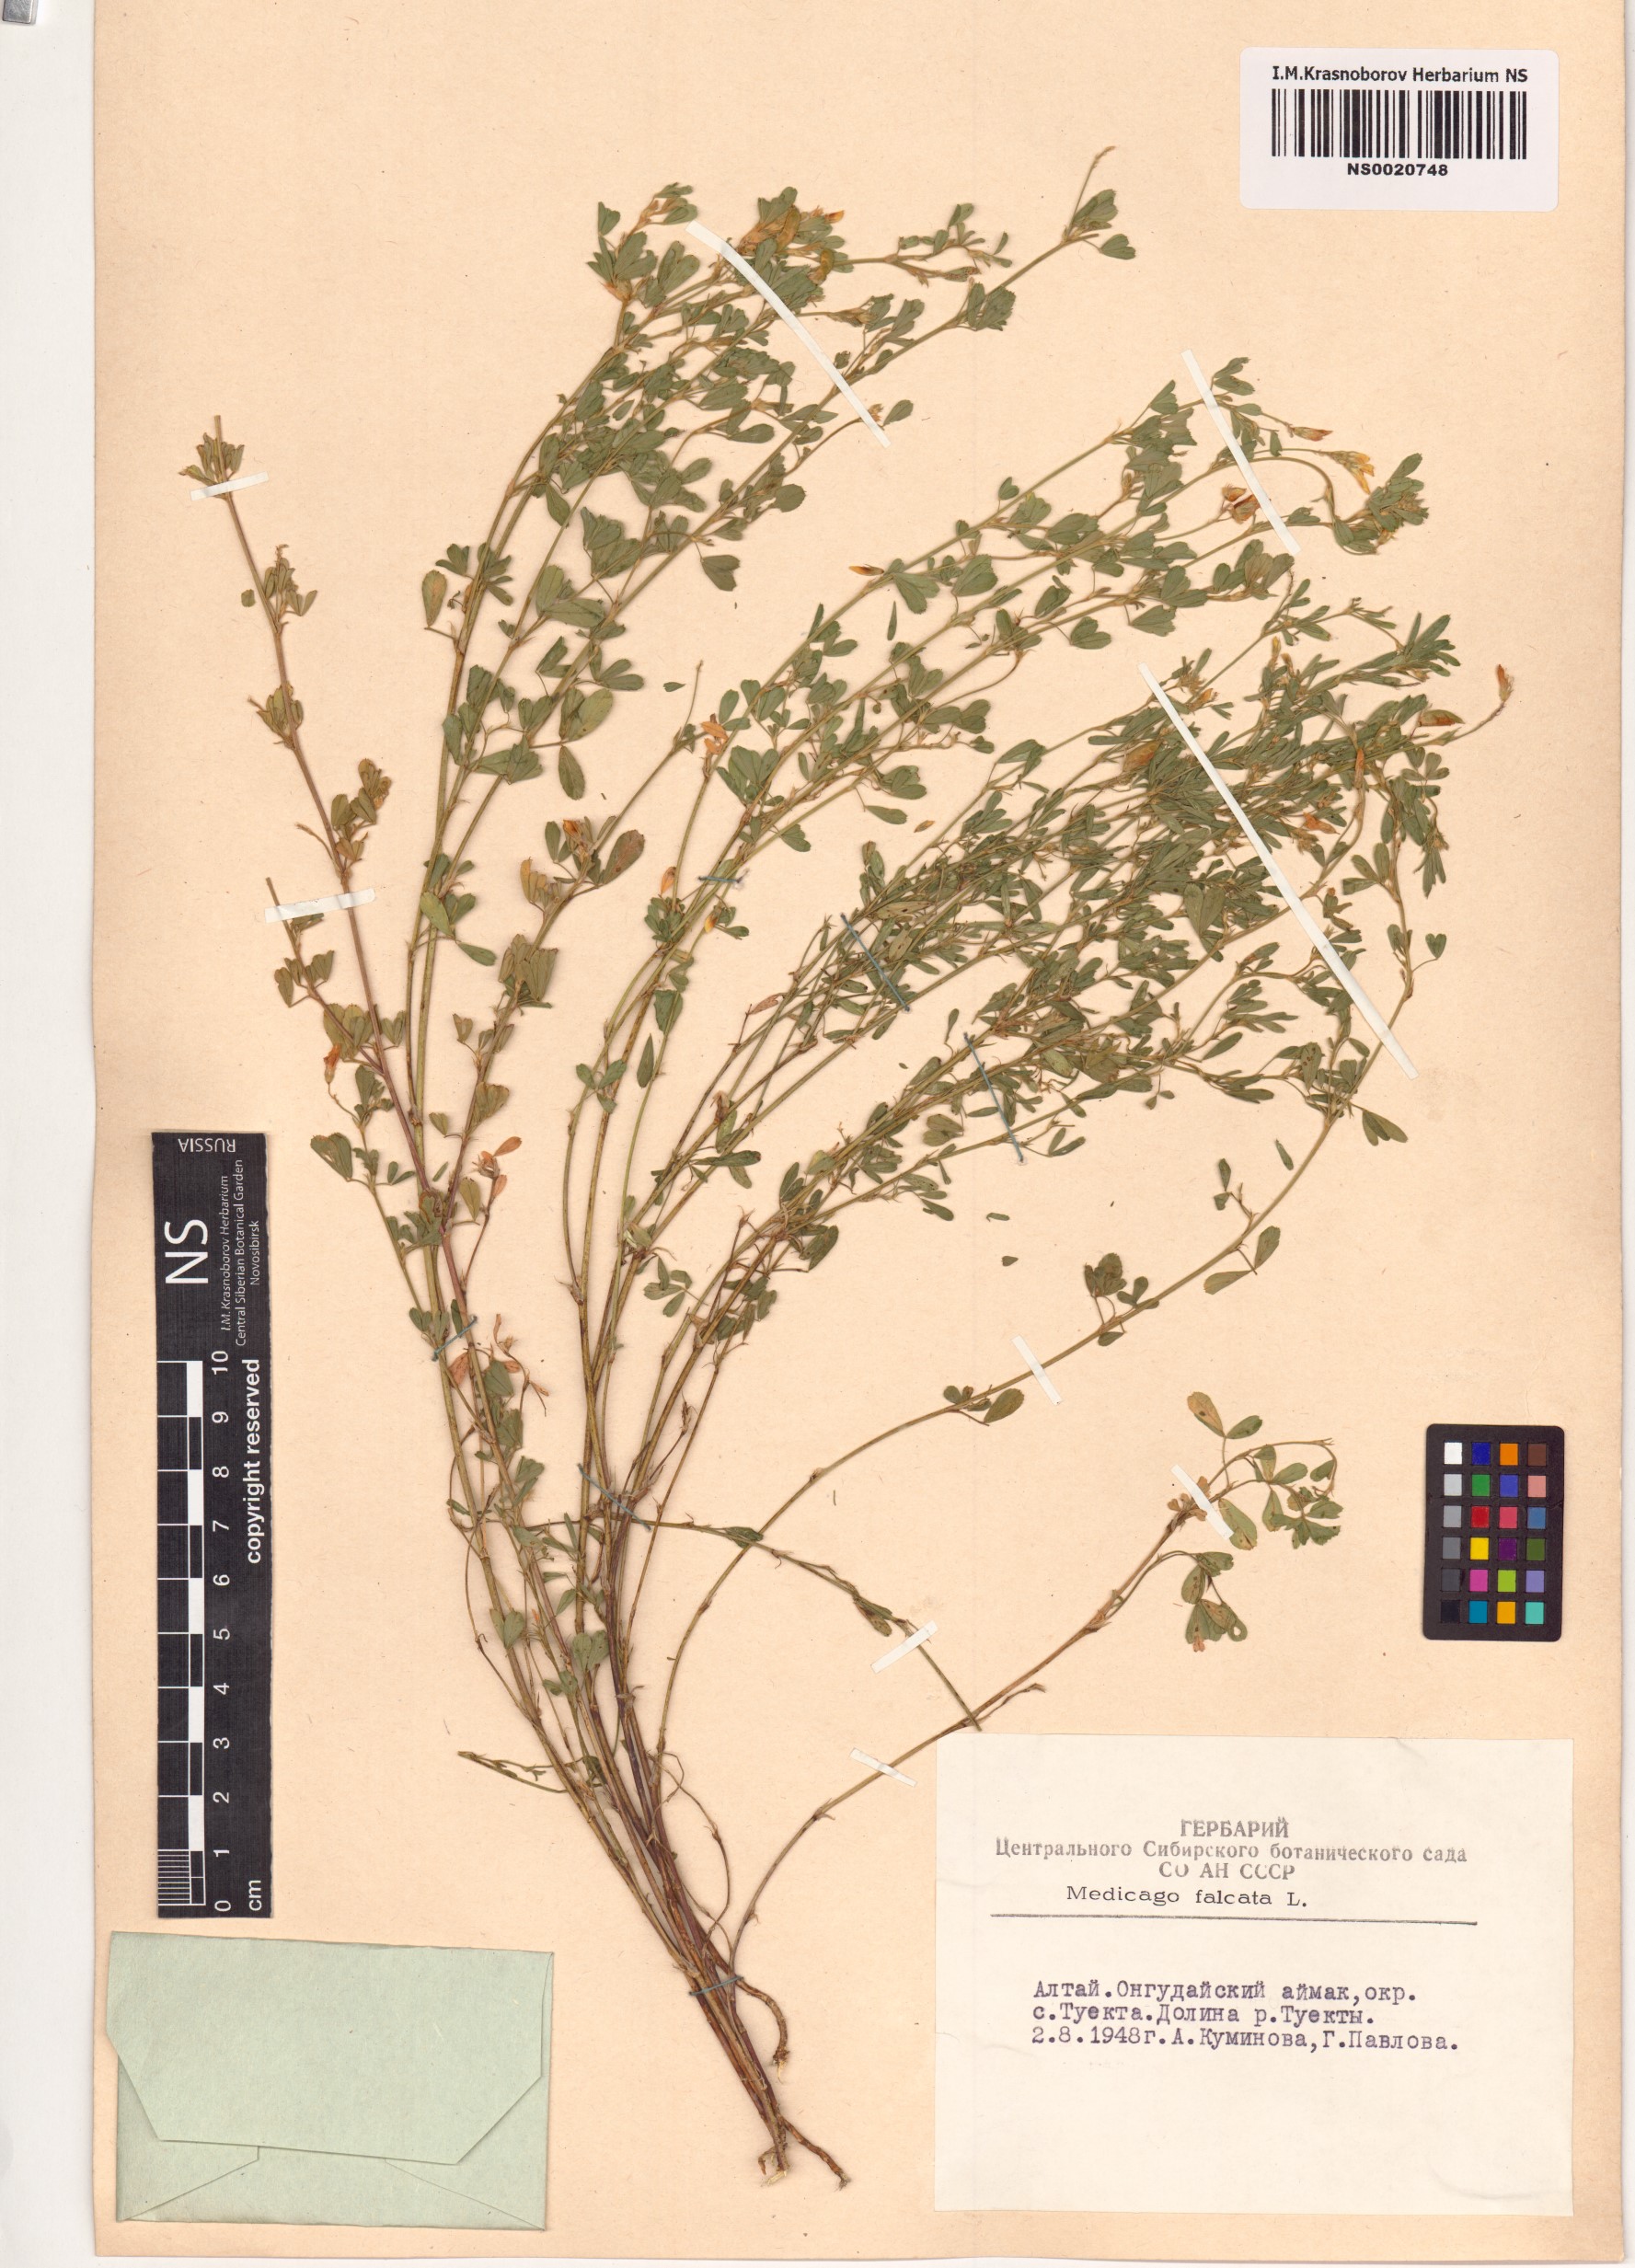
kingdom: Plantae
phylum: Tracheophyta
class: Magnoliopsida
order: Fabales
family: Fabaceae
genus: Medicago
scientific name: Medicago falcata
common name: Sickle medick
